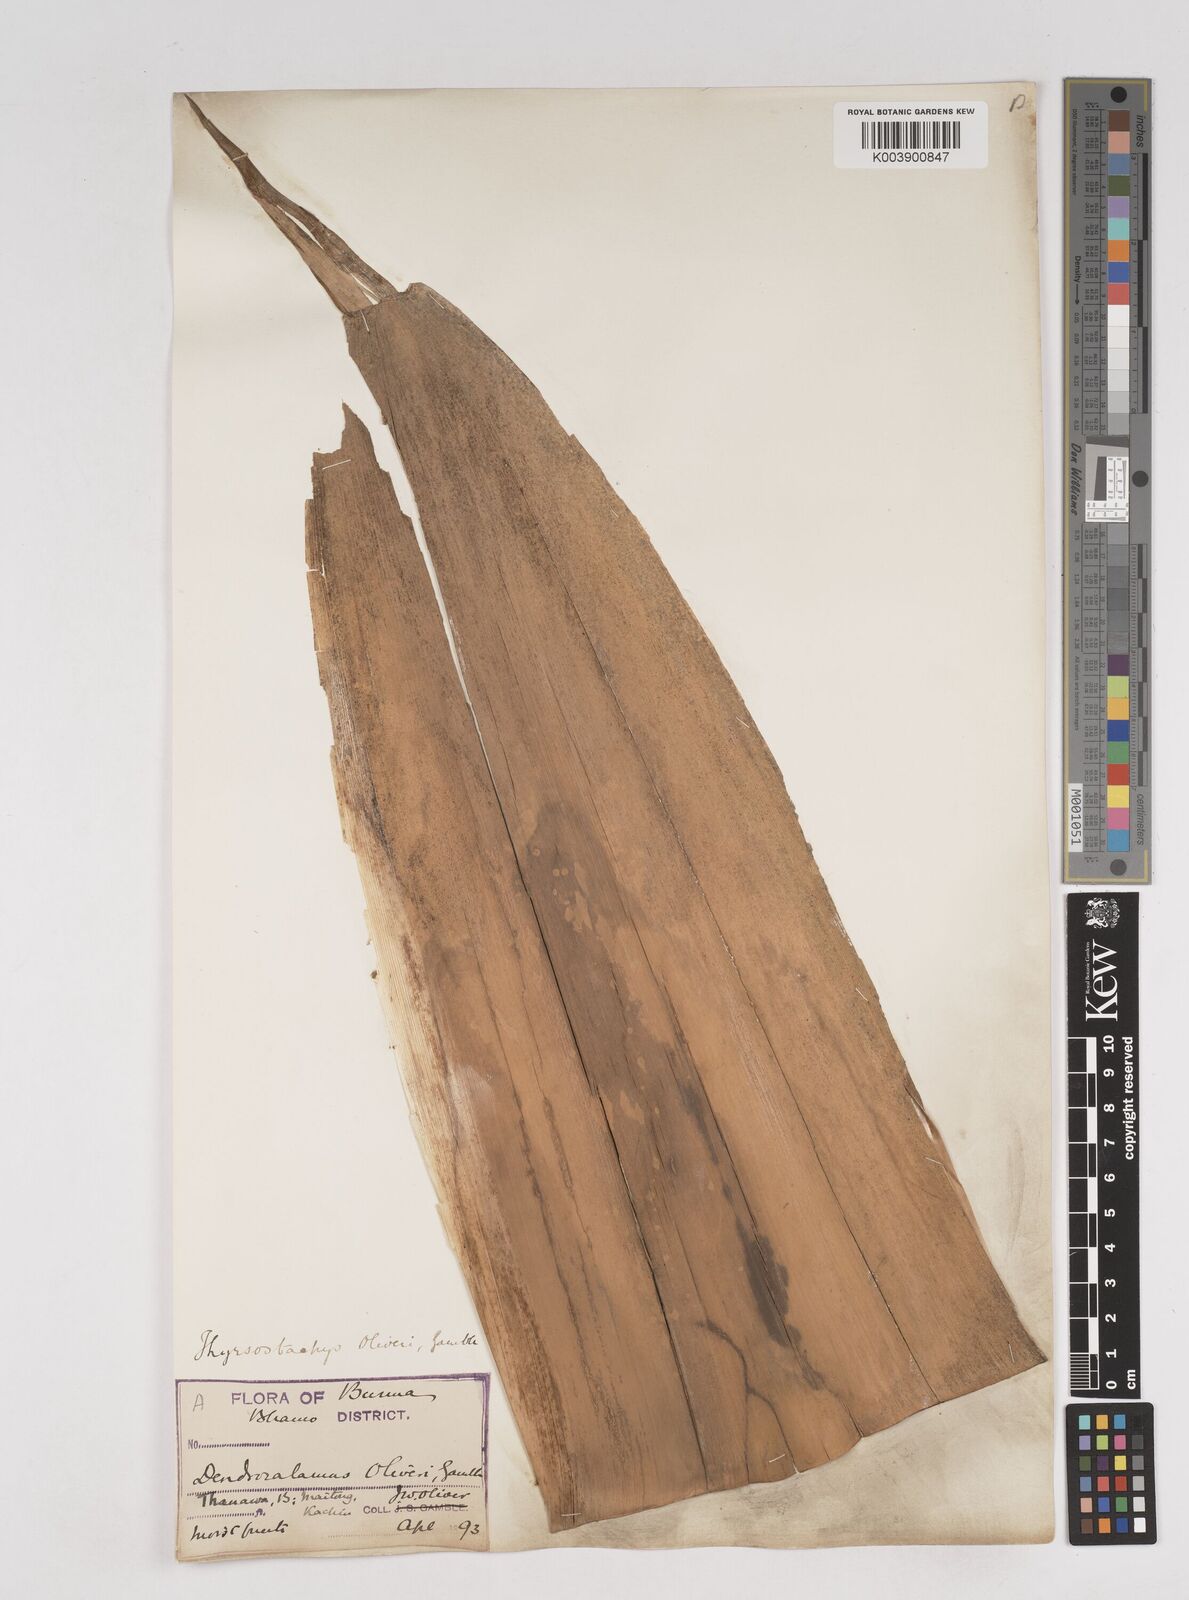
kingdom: Plantae
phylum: Tracheophyta
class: Liliopsida
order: Poales
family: Poaceae
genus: Thyrsostachys
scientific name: Thyrsostachys oliveri
